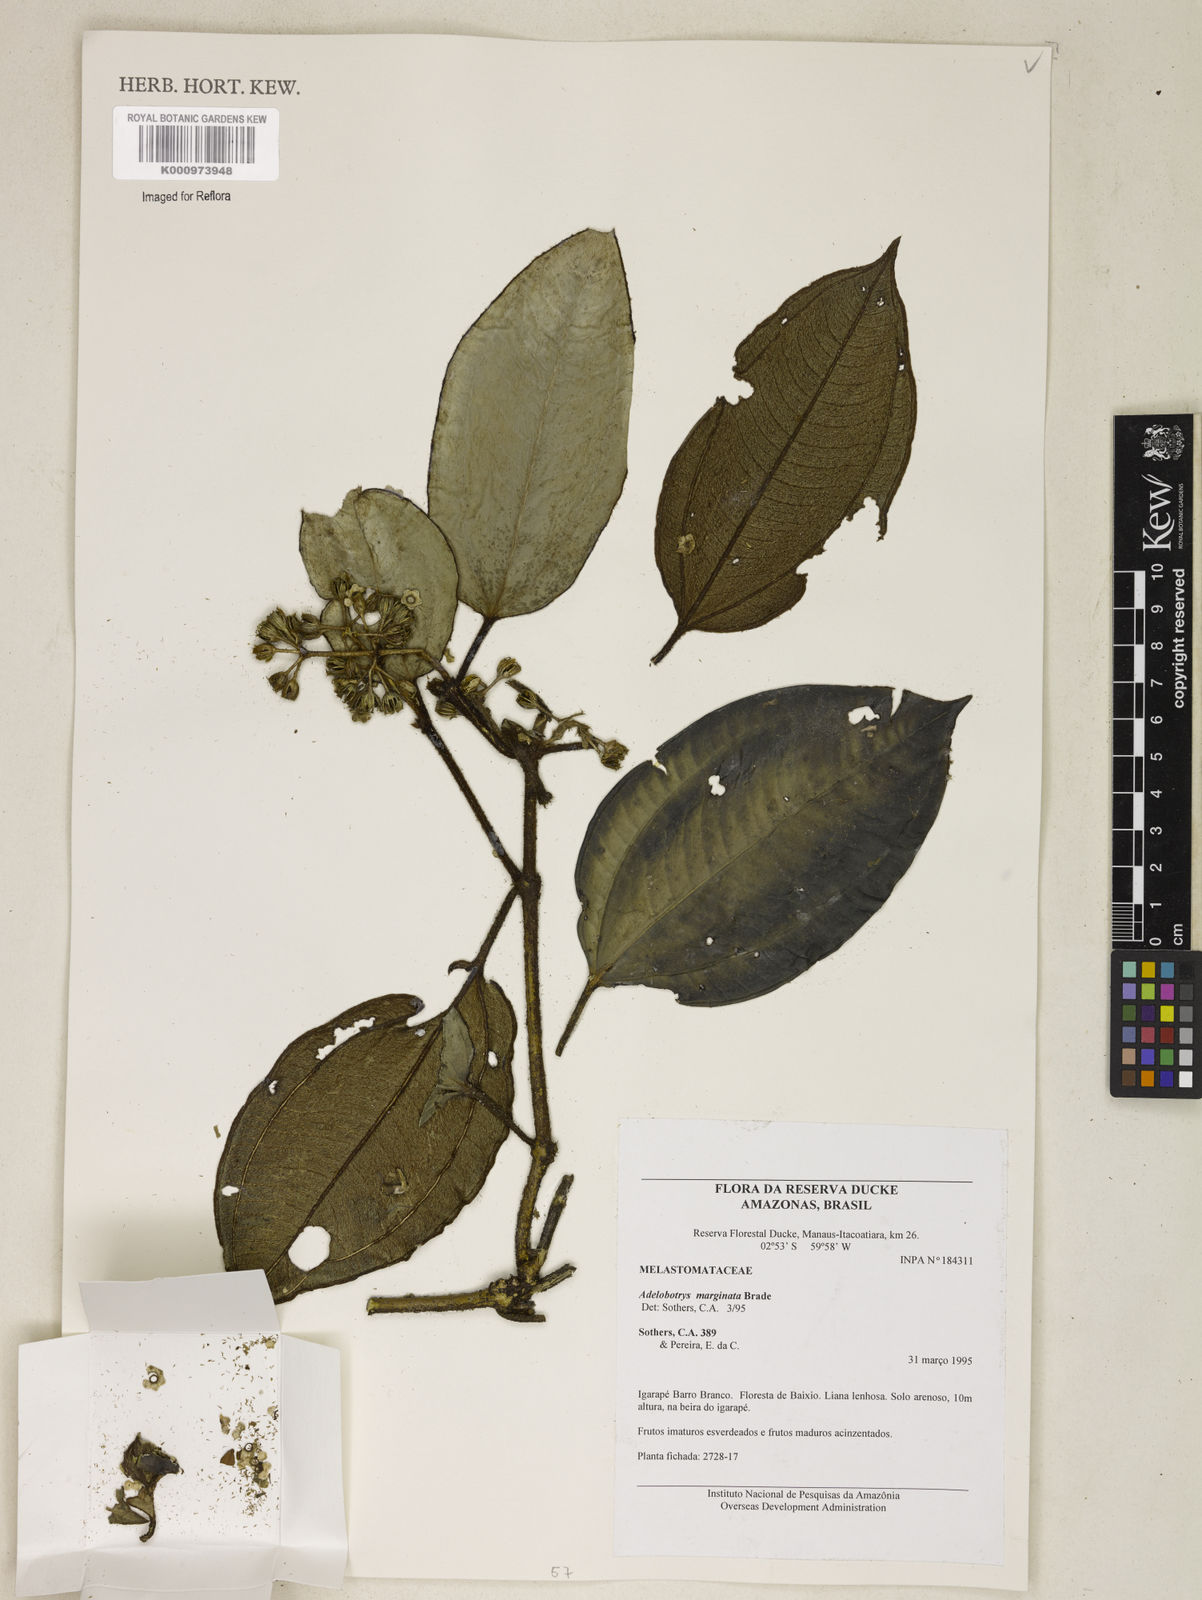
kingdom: Plantae
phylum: Tracheophyta
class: Magnoliopsida
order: Myrtales
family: Melastomataceae
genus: Adelobotrys
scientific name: Adelobotrys marginatus
